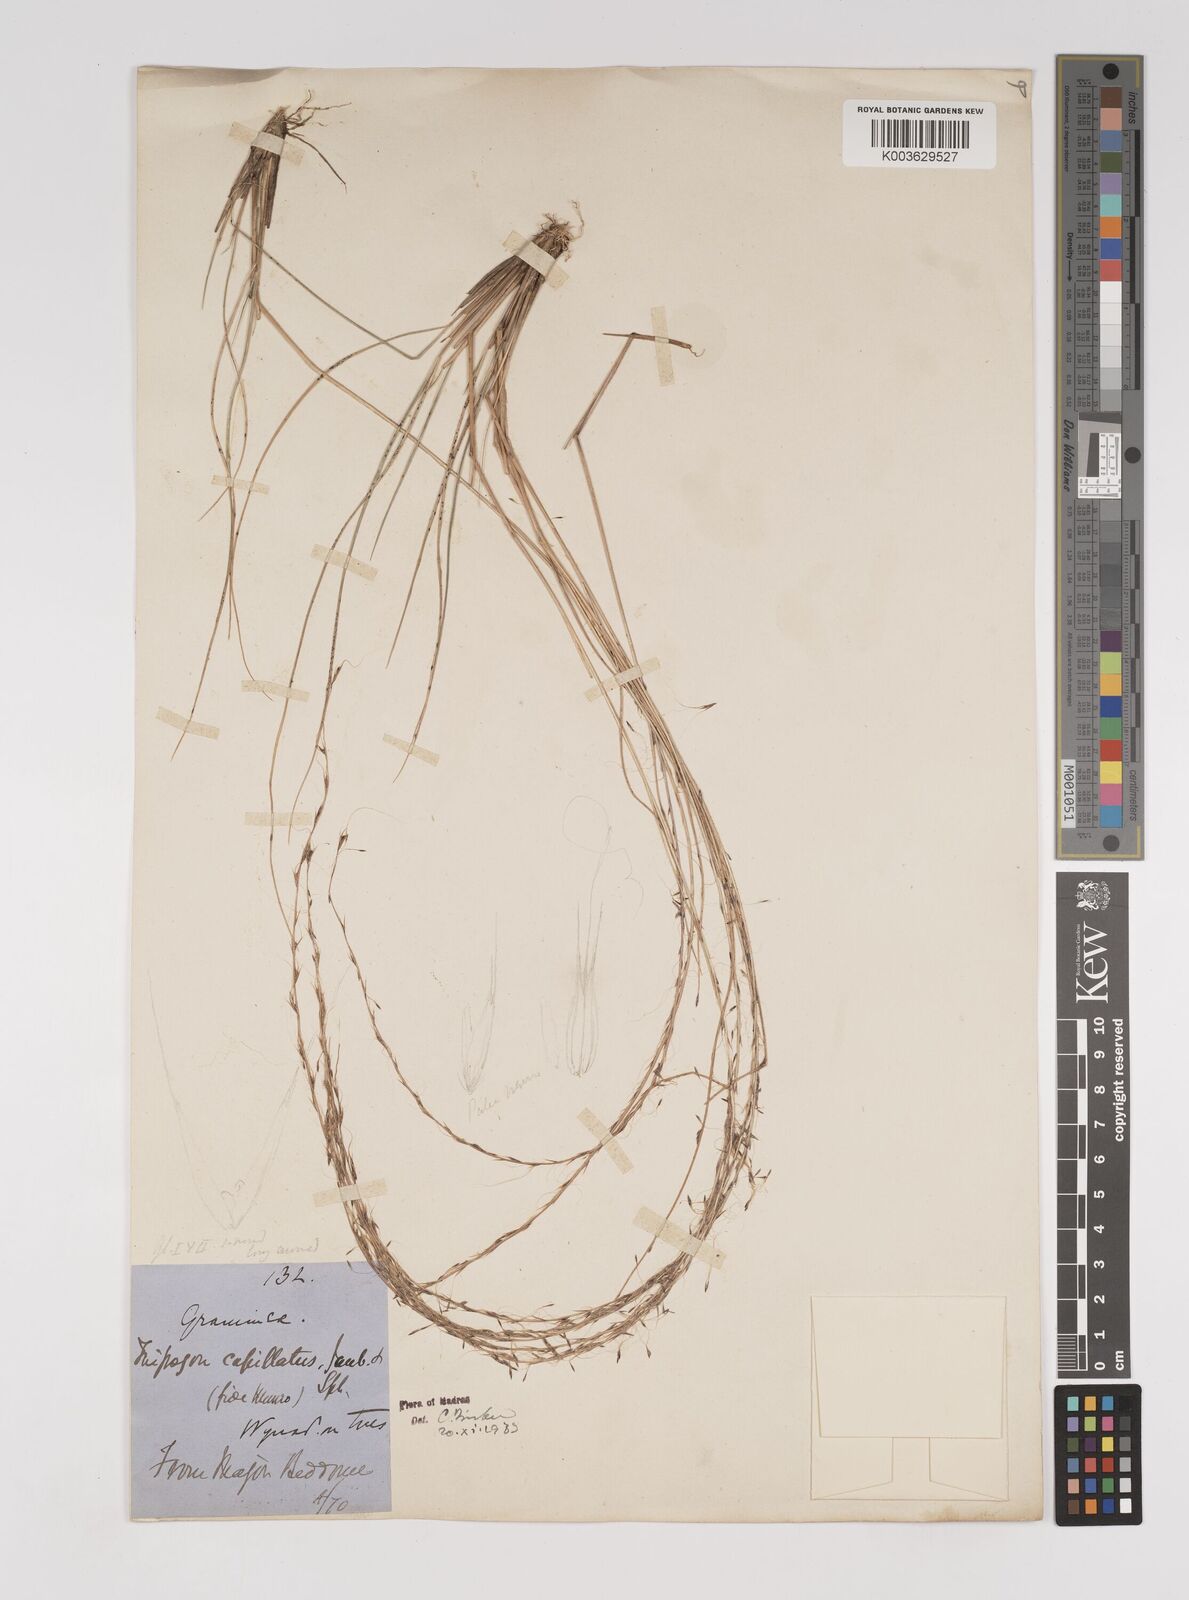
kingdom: Plantae
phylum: Tracheophyta
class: Liliopsida
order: Poales
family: Poaceae
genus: Tripogon
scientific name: Tripogon capillatus
